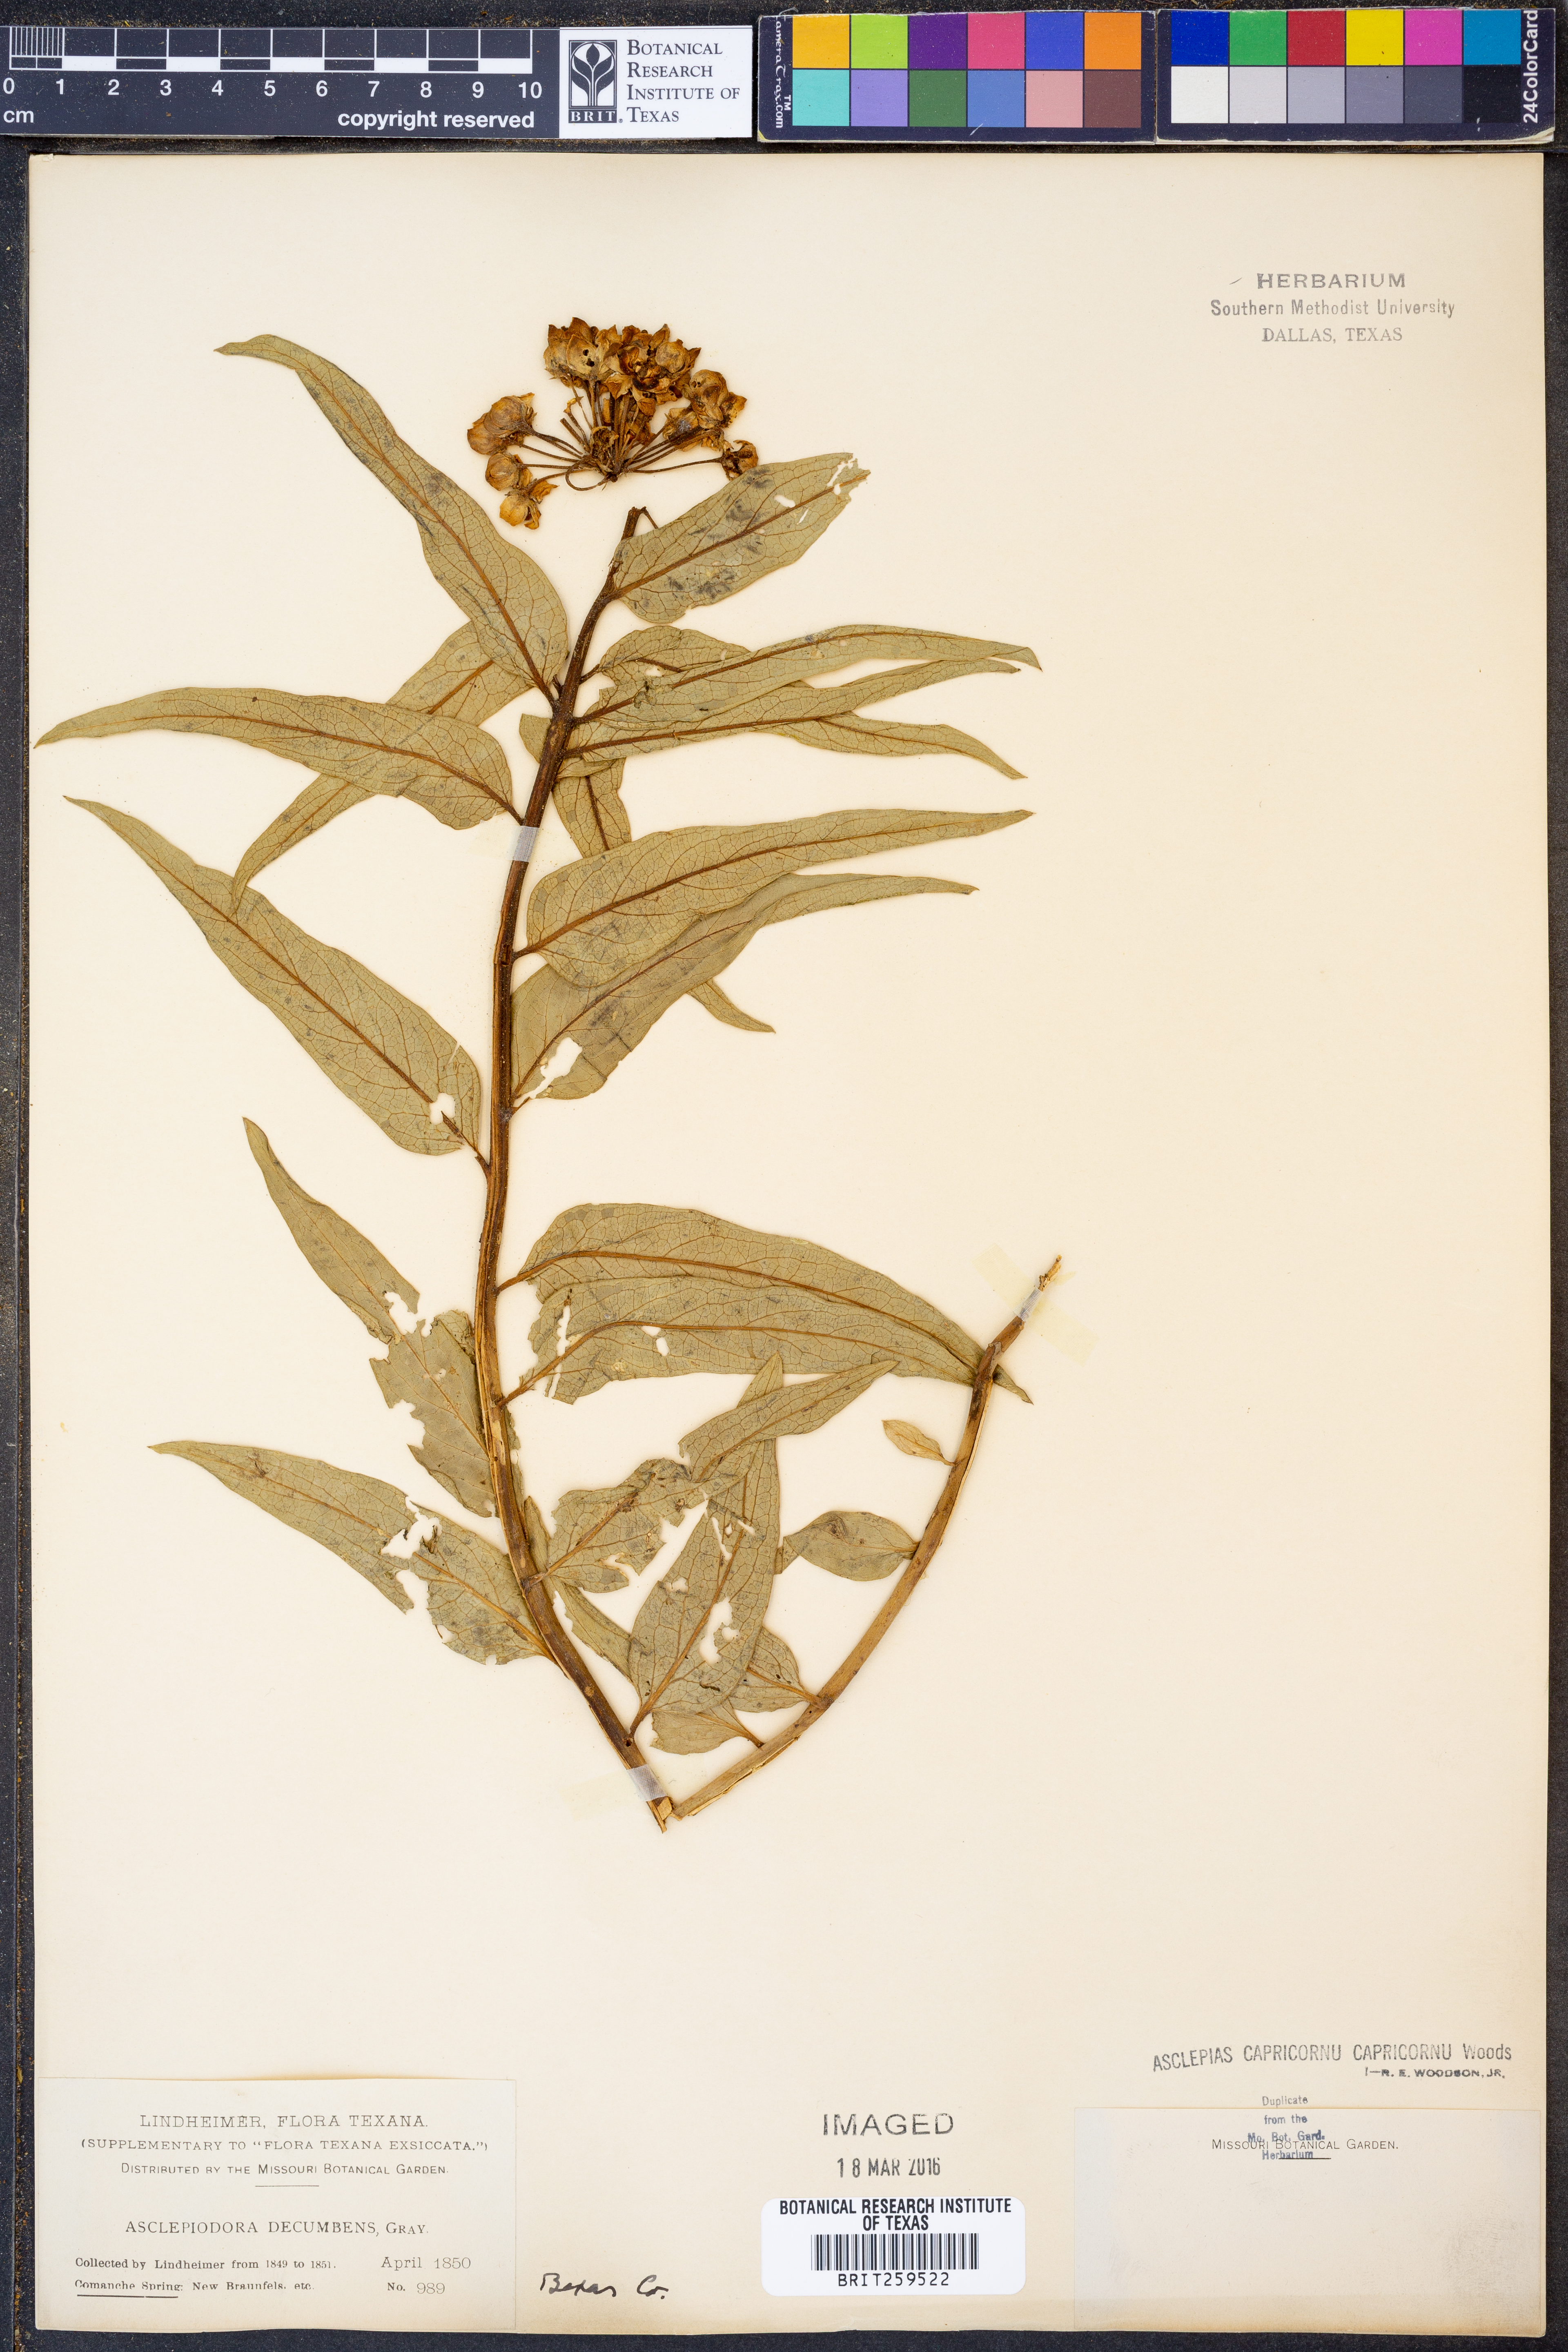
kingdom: Plantae
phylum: Tracheophyta
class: Magnoliopsida
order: Gentianales
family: Apocynaceae
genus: Asclepias
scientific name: Asclepias asperula
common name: Antelope horns
